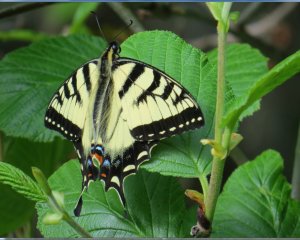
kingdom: Animalia
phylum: Arthropoda
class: Insecta
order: Lepidoptera
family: Papilionidae
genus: Pterourus
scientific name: Pterourus canadensis
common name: Canadian Tiger Swallowtail
